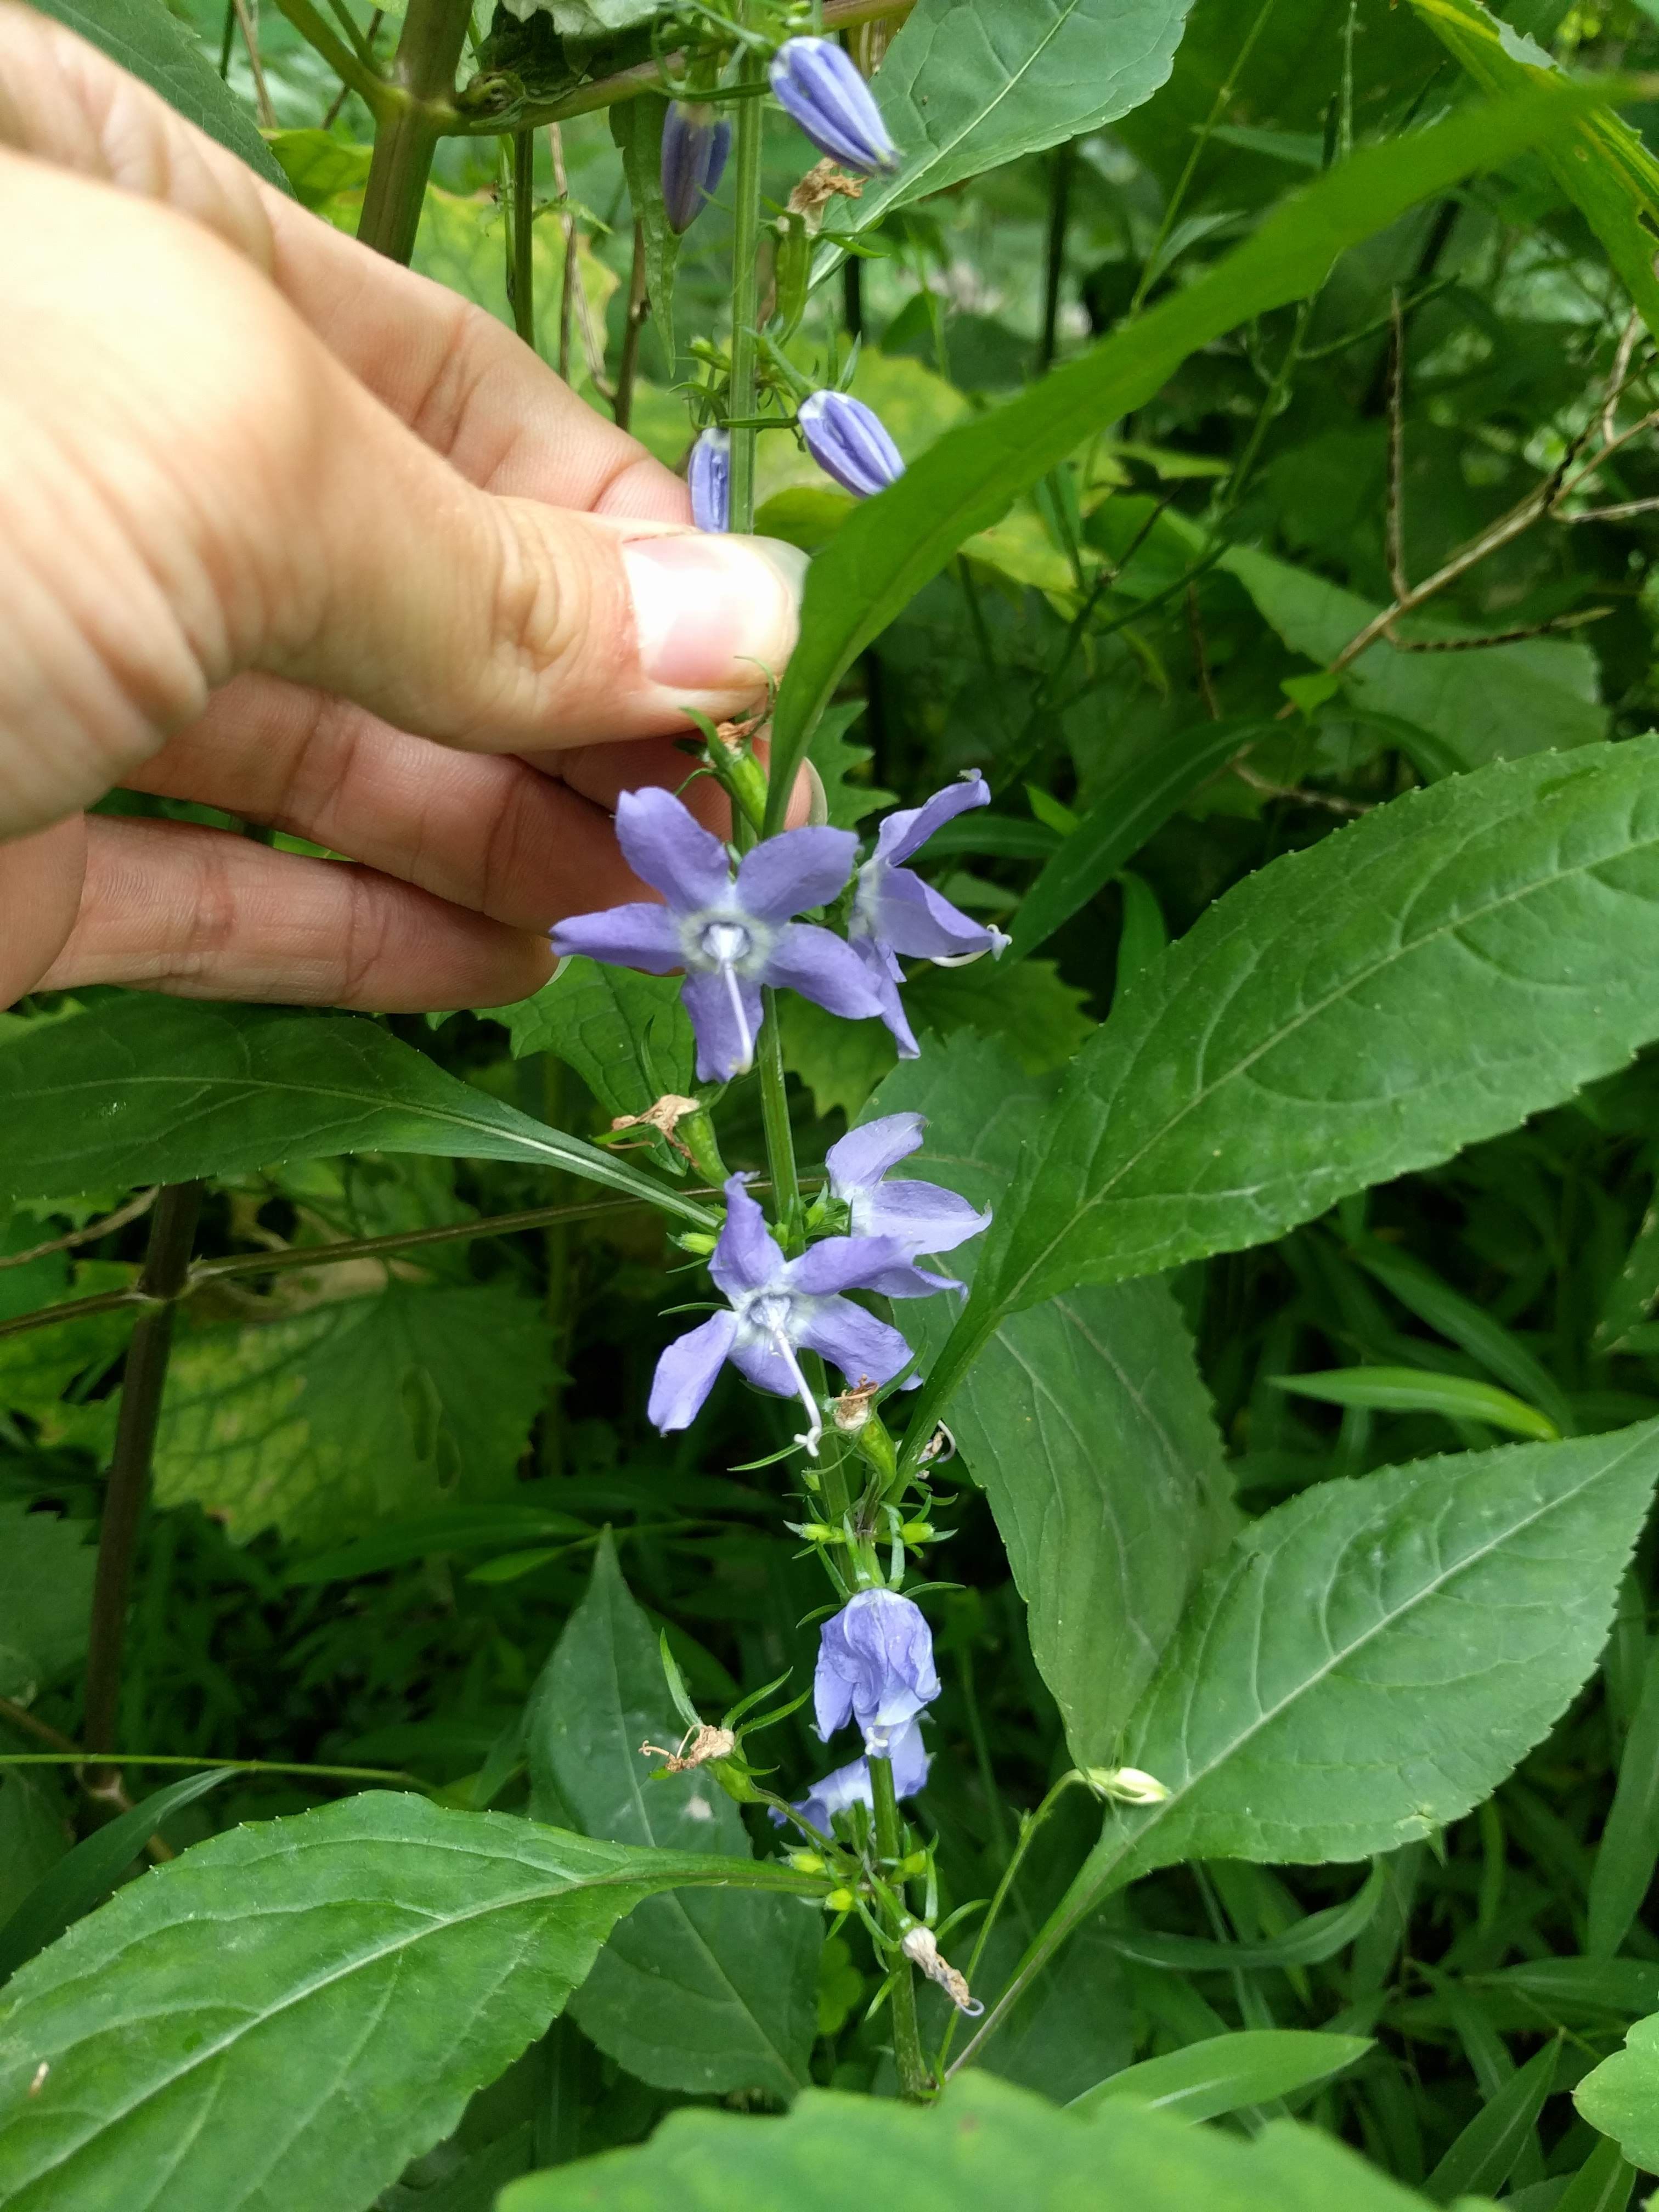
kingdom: Plantae
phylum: Tracheophyta
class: Magnoliopsida
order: Asterales
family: Campanulaceae
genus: Campanulastrum
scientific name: Campanulastrum americanum
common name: American bellflower
